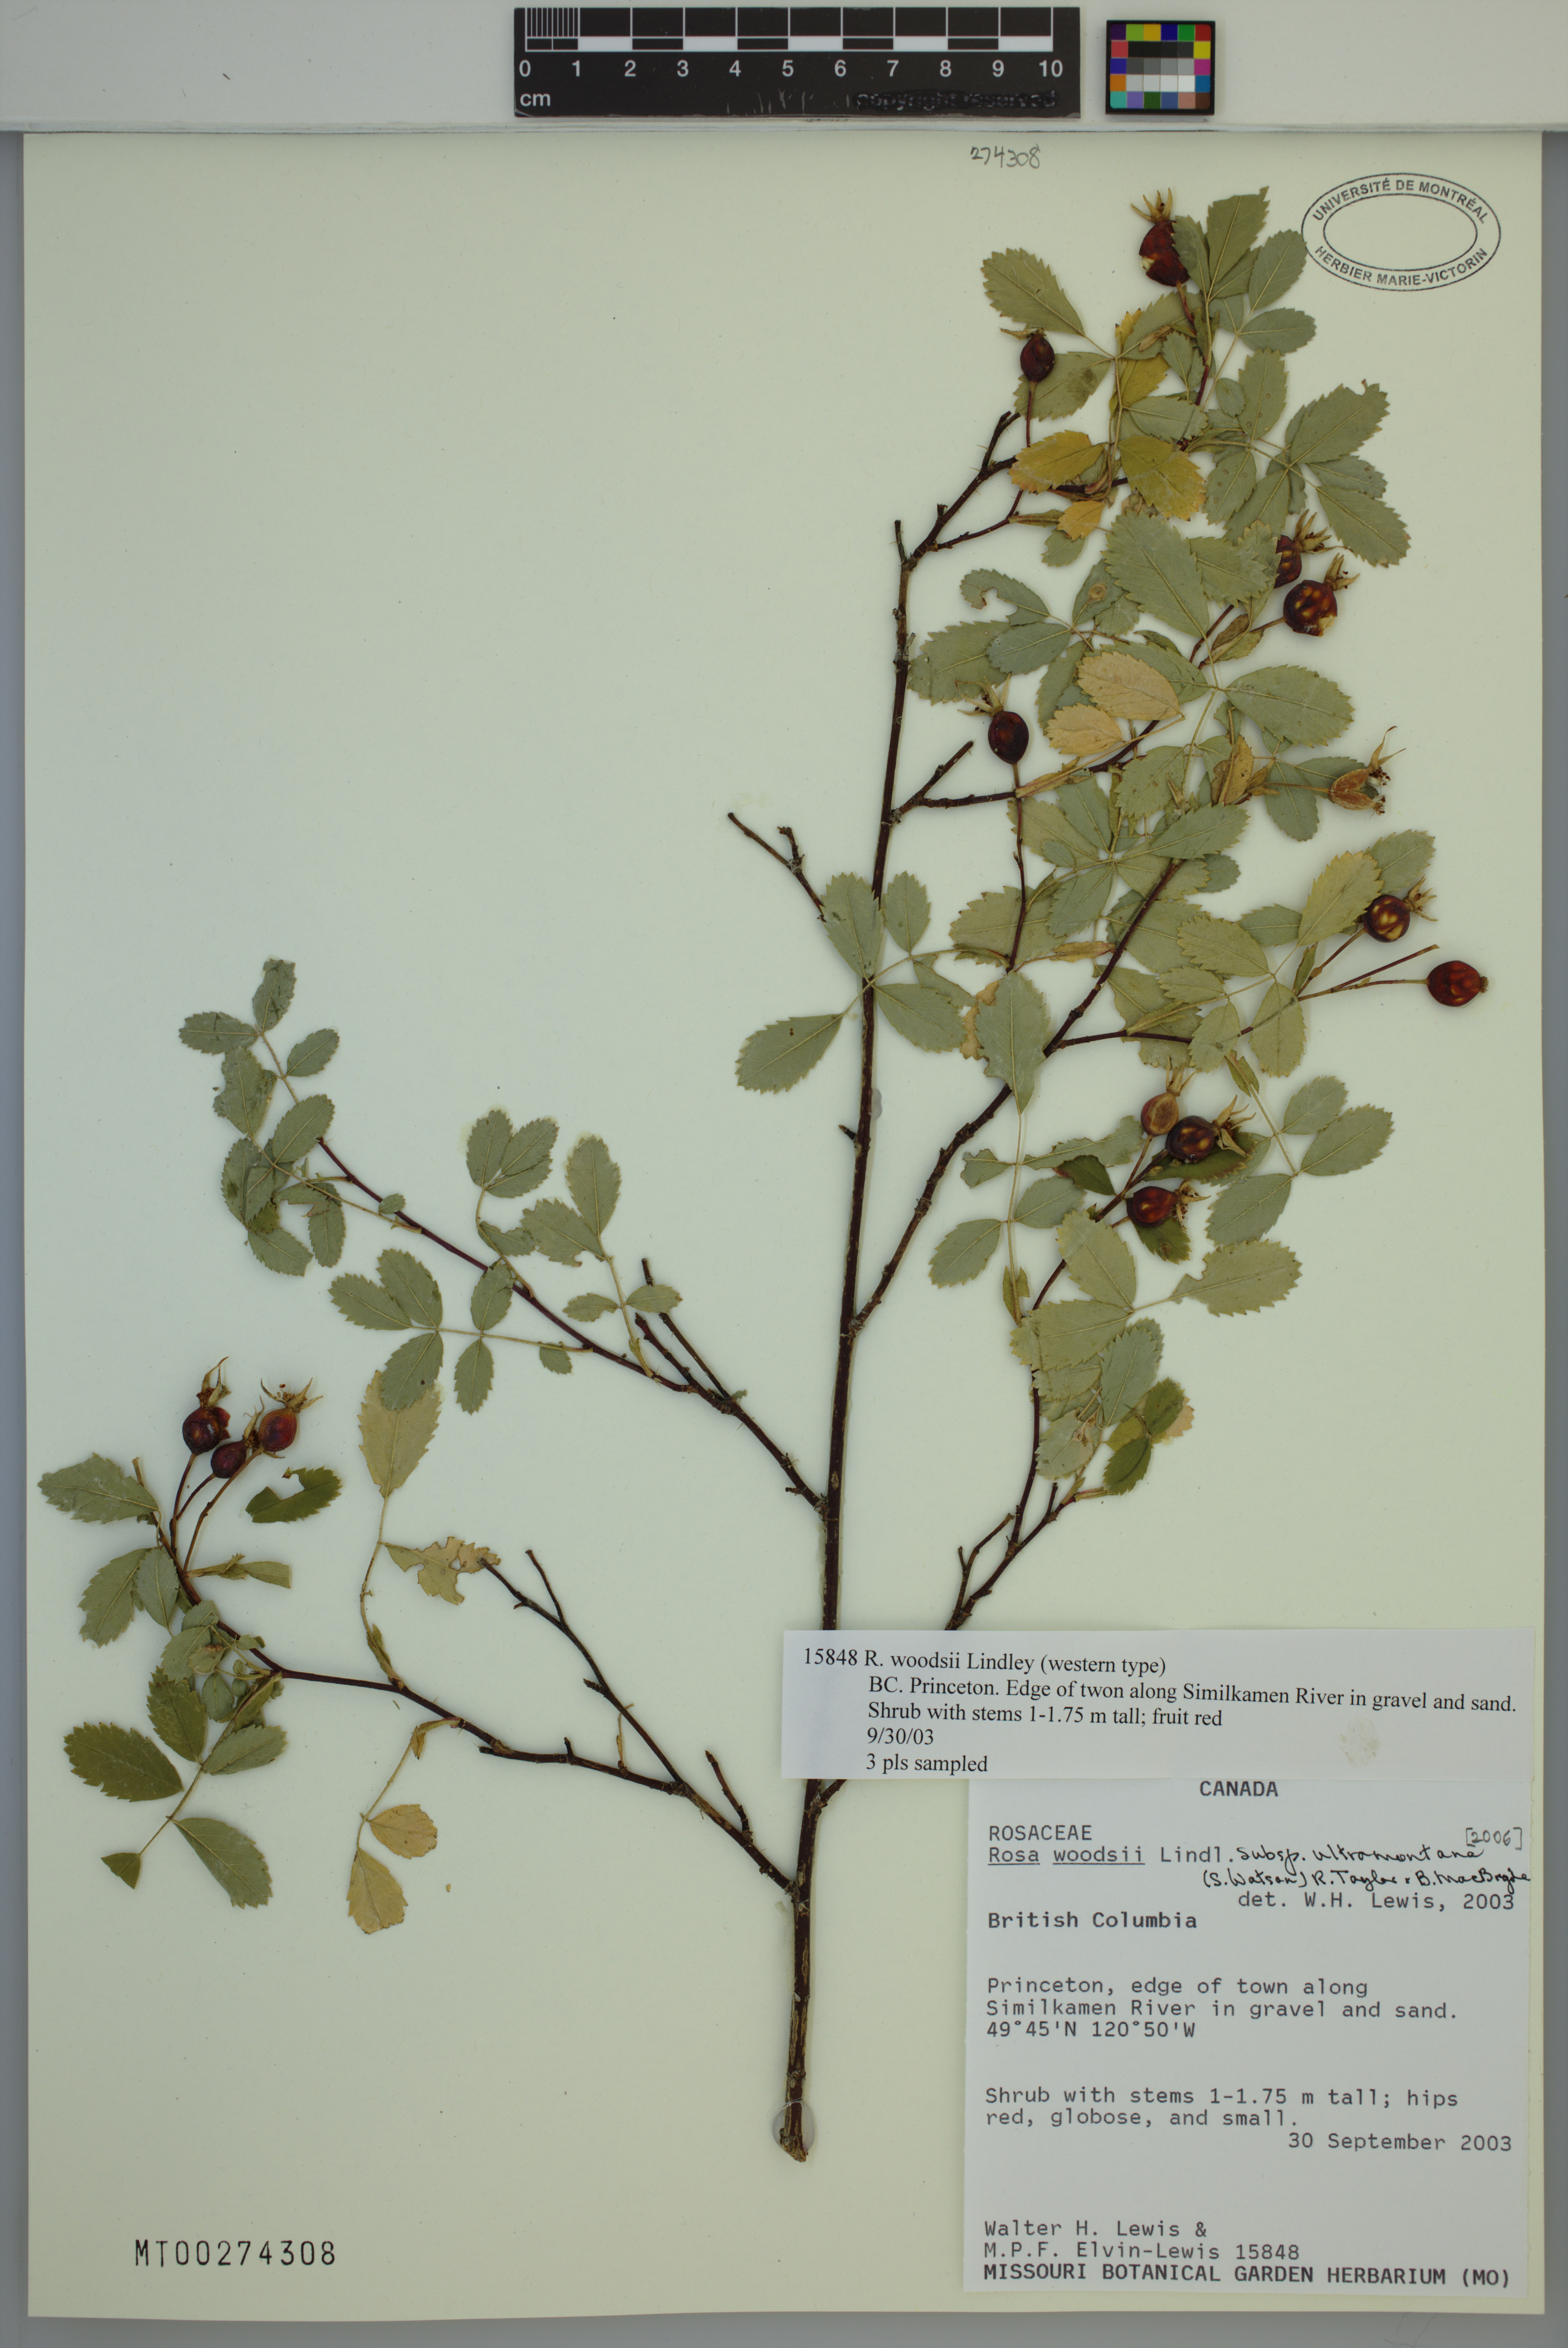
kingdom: Plantae
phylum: Tracheophyta
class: Magnoliopsida
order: Rosales
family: Rosaceae
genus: Rosa
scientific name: Rosa woodsii
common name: Woods's rose
